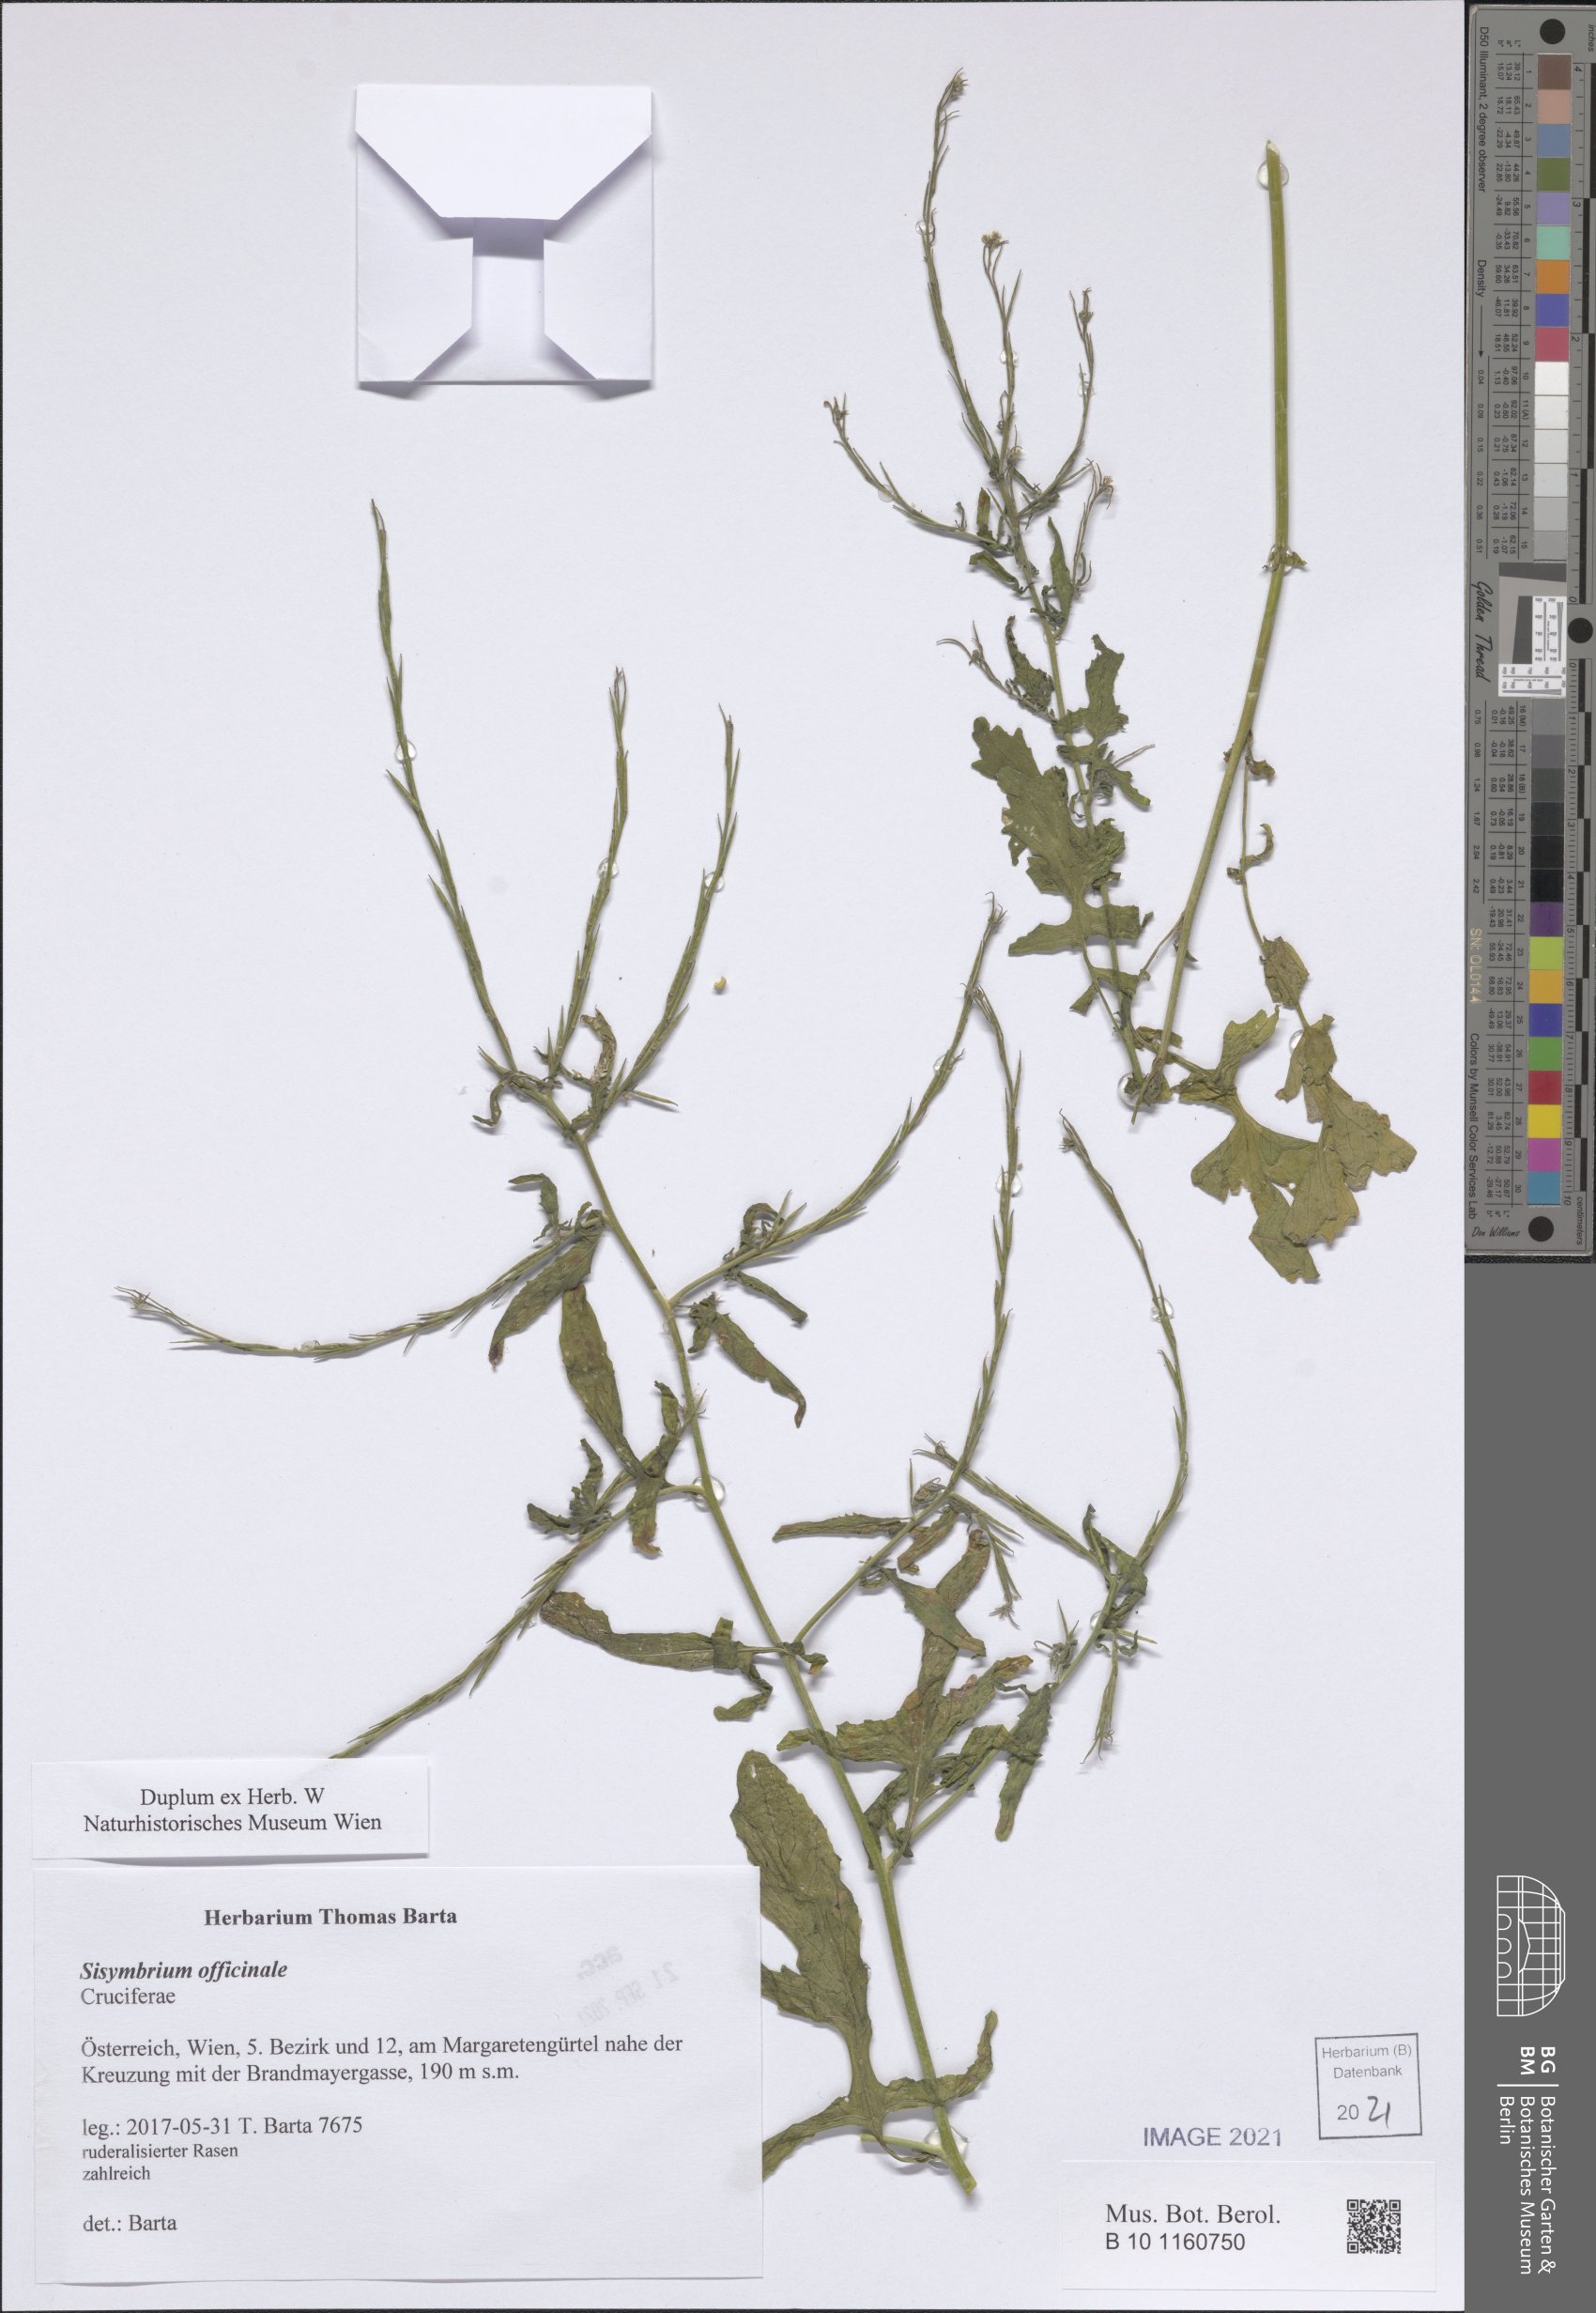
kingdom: Plantae
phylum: Tracheophyta
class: Magnoliopsida
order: Brassicales
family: Brassicaceae
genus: Sisymbrium
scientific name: Sisymbrium officinale
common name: Hedge mustard
